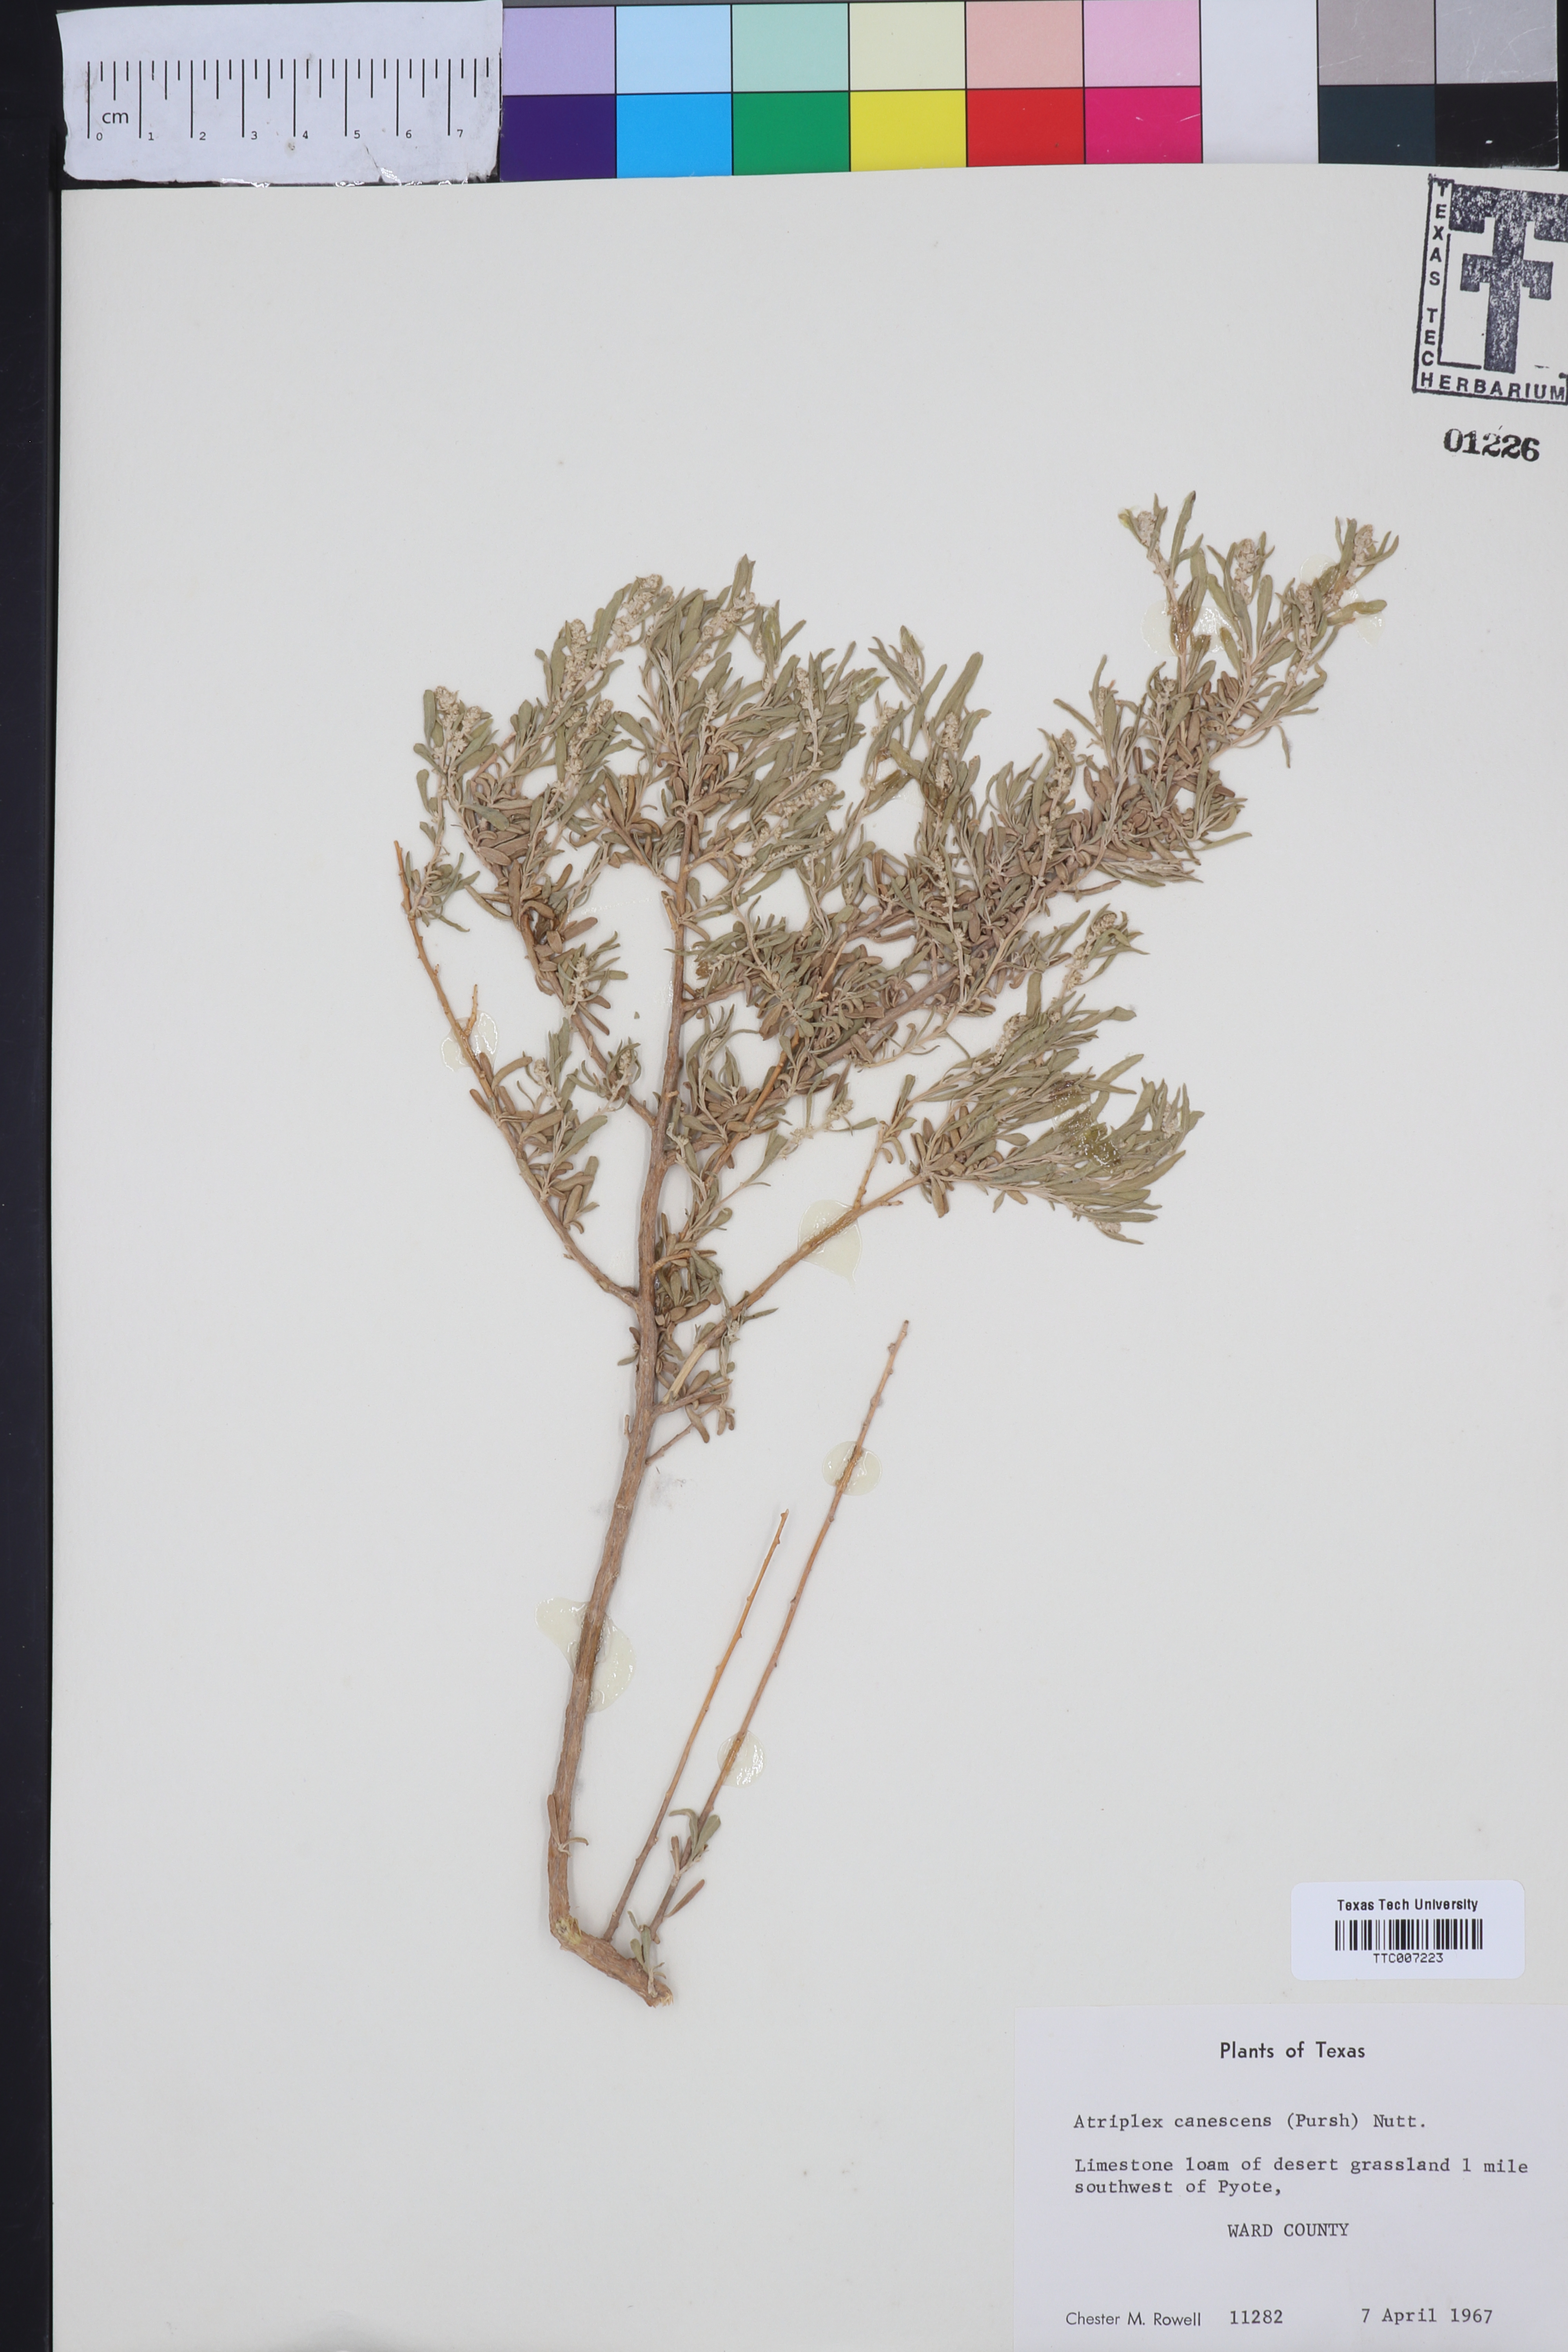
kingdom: Plantae
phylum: Tracheophyta
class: Magnoliopsida
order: Caryophyllales
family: Amaranthaceae
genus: Atriplex
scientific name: Atriplex canescens
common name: Four-wing saltbush
